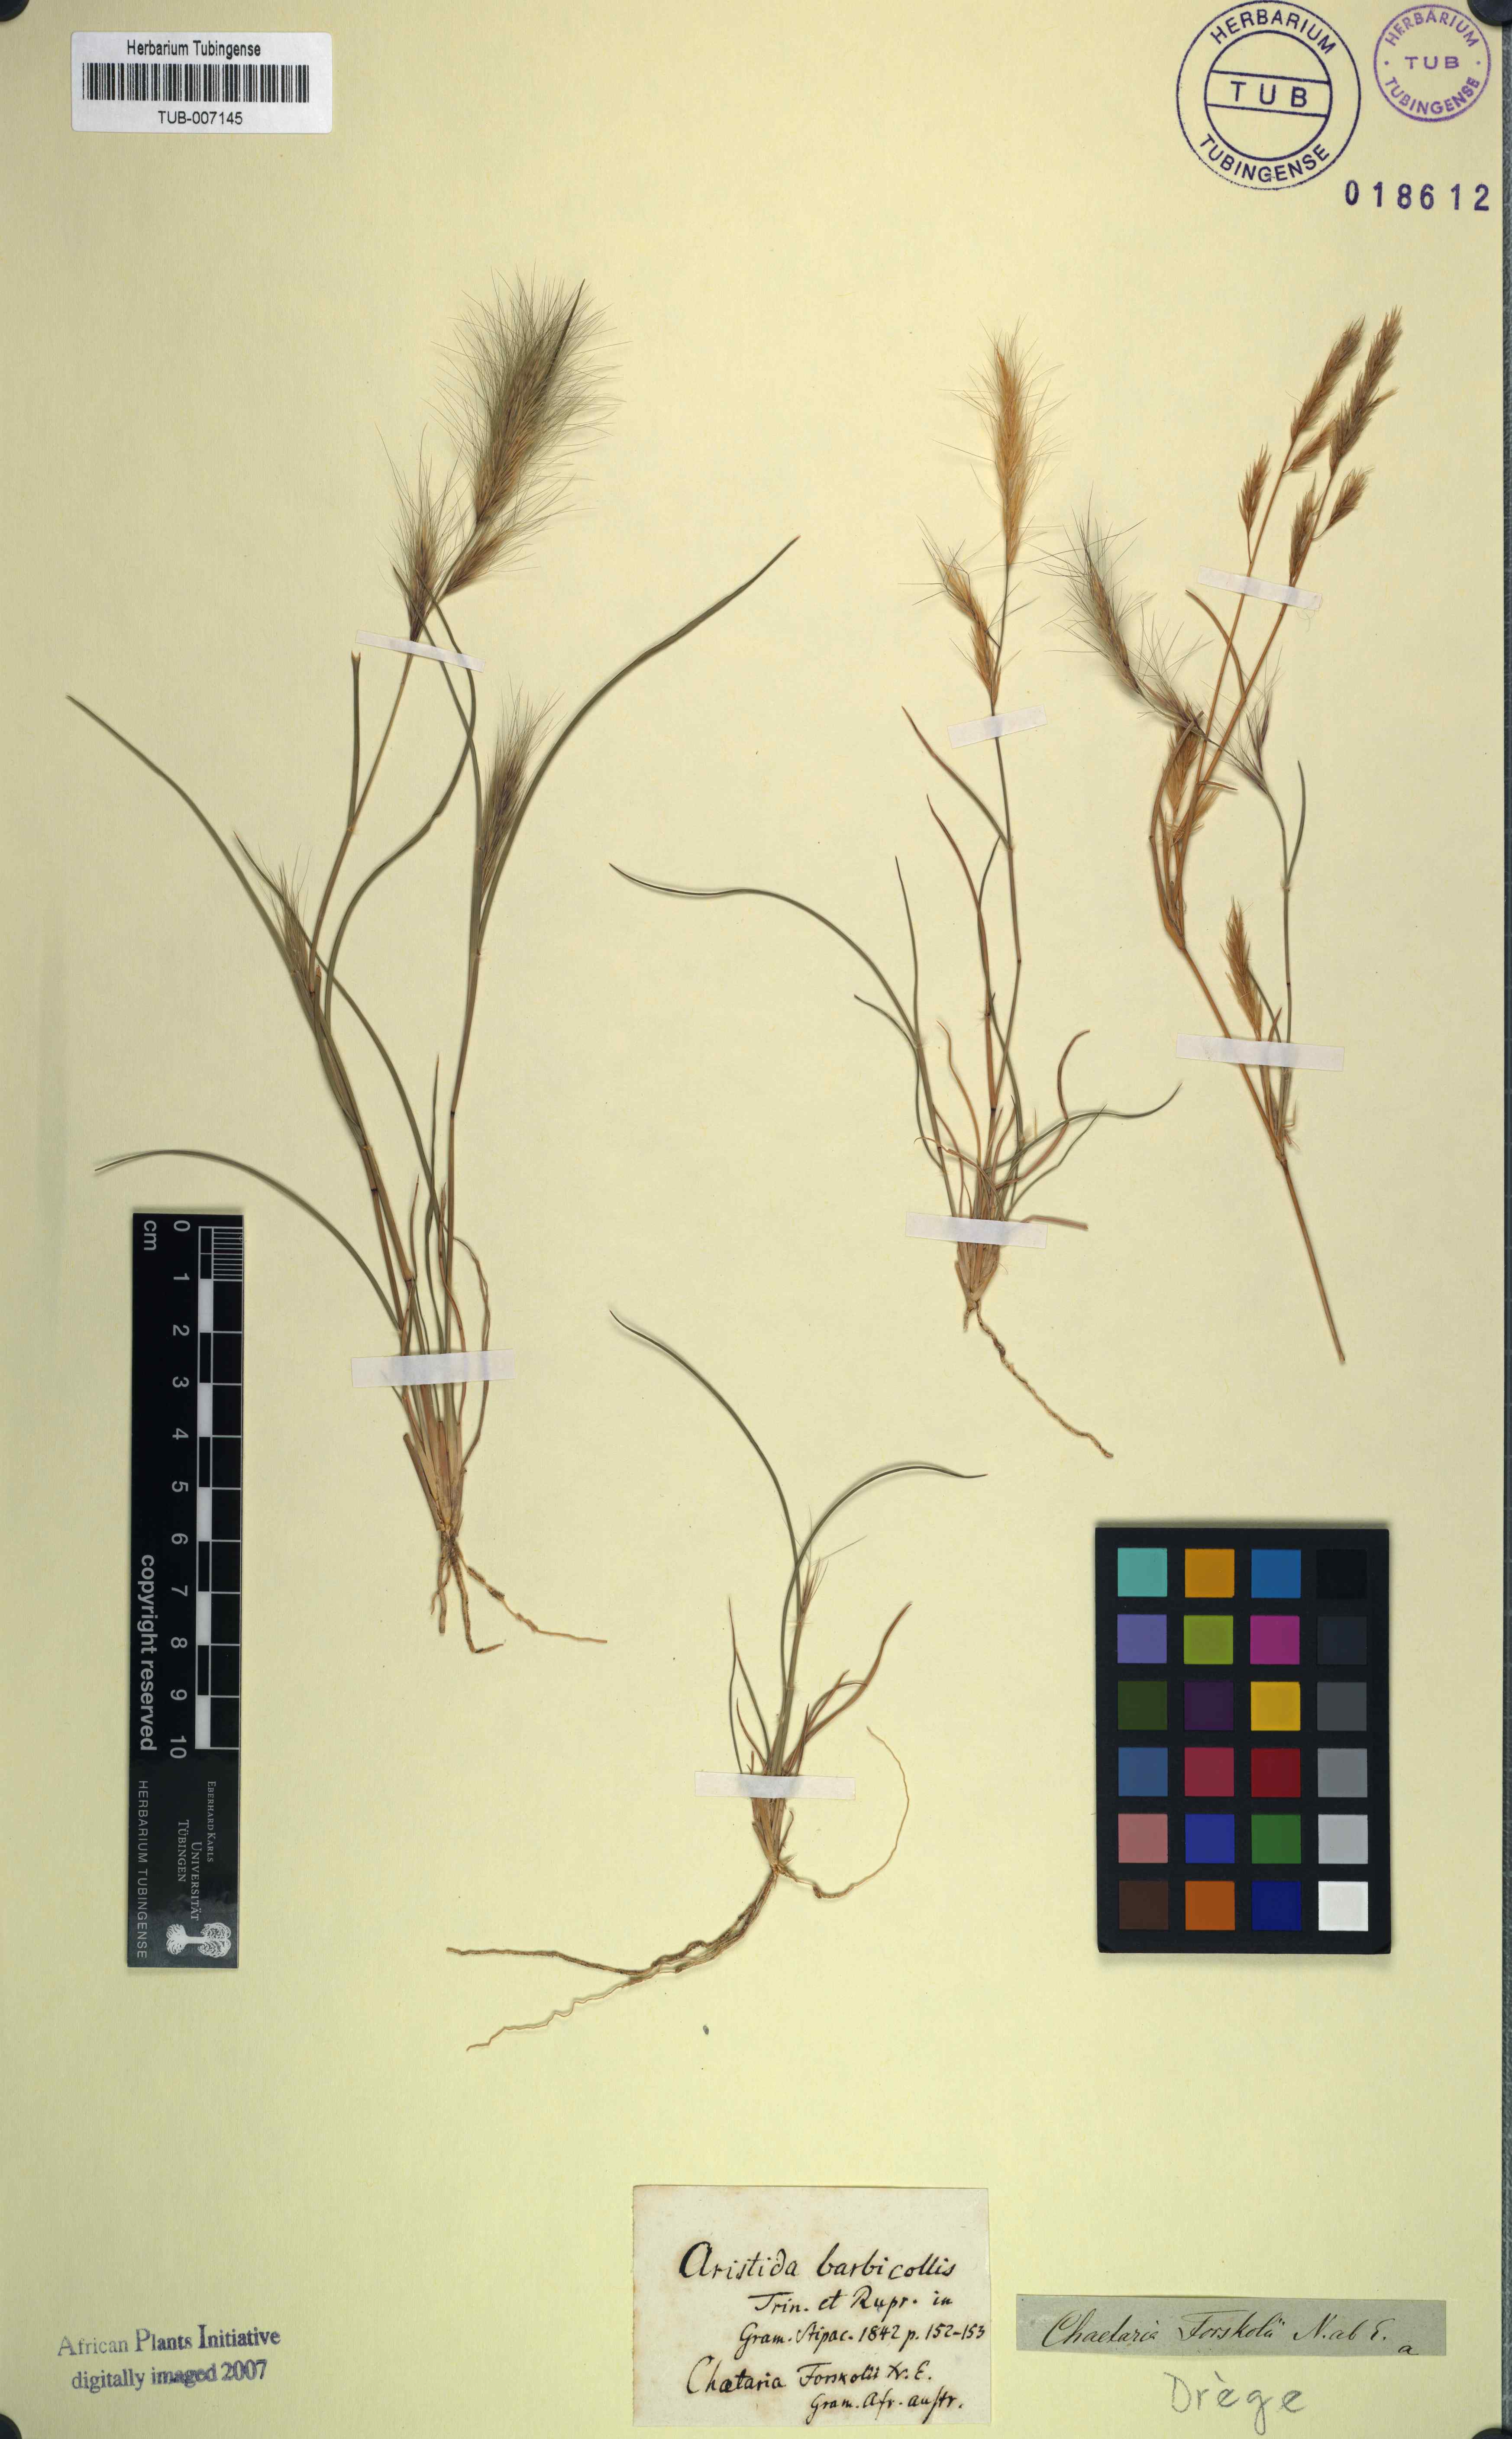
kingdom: Plantae
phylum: Tracheophyta
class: Liliopsida
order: Poales
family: Poaceae
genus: Aristida
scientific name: Aristida adscensionis
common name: Sixweeks threeawn
